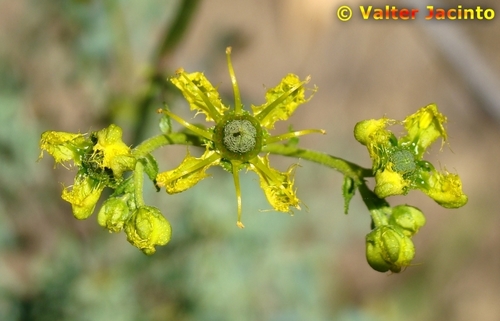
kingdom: Plantae
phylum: Tracheophyta
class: Magnoliopsida
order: Sapindales
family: Rutaceae
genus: Ruta
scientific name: Ruta angustifolia
